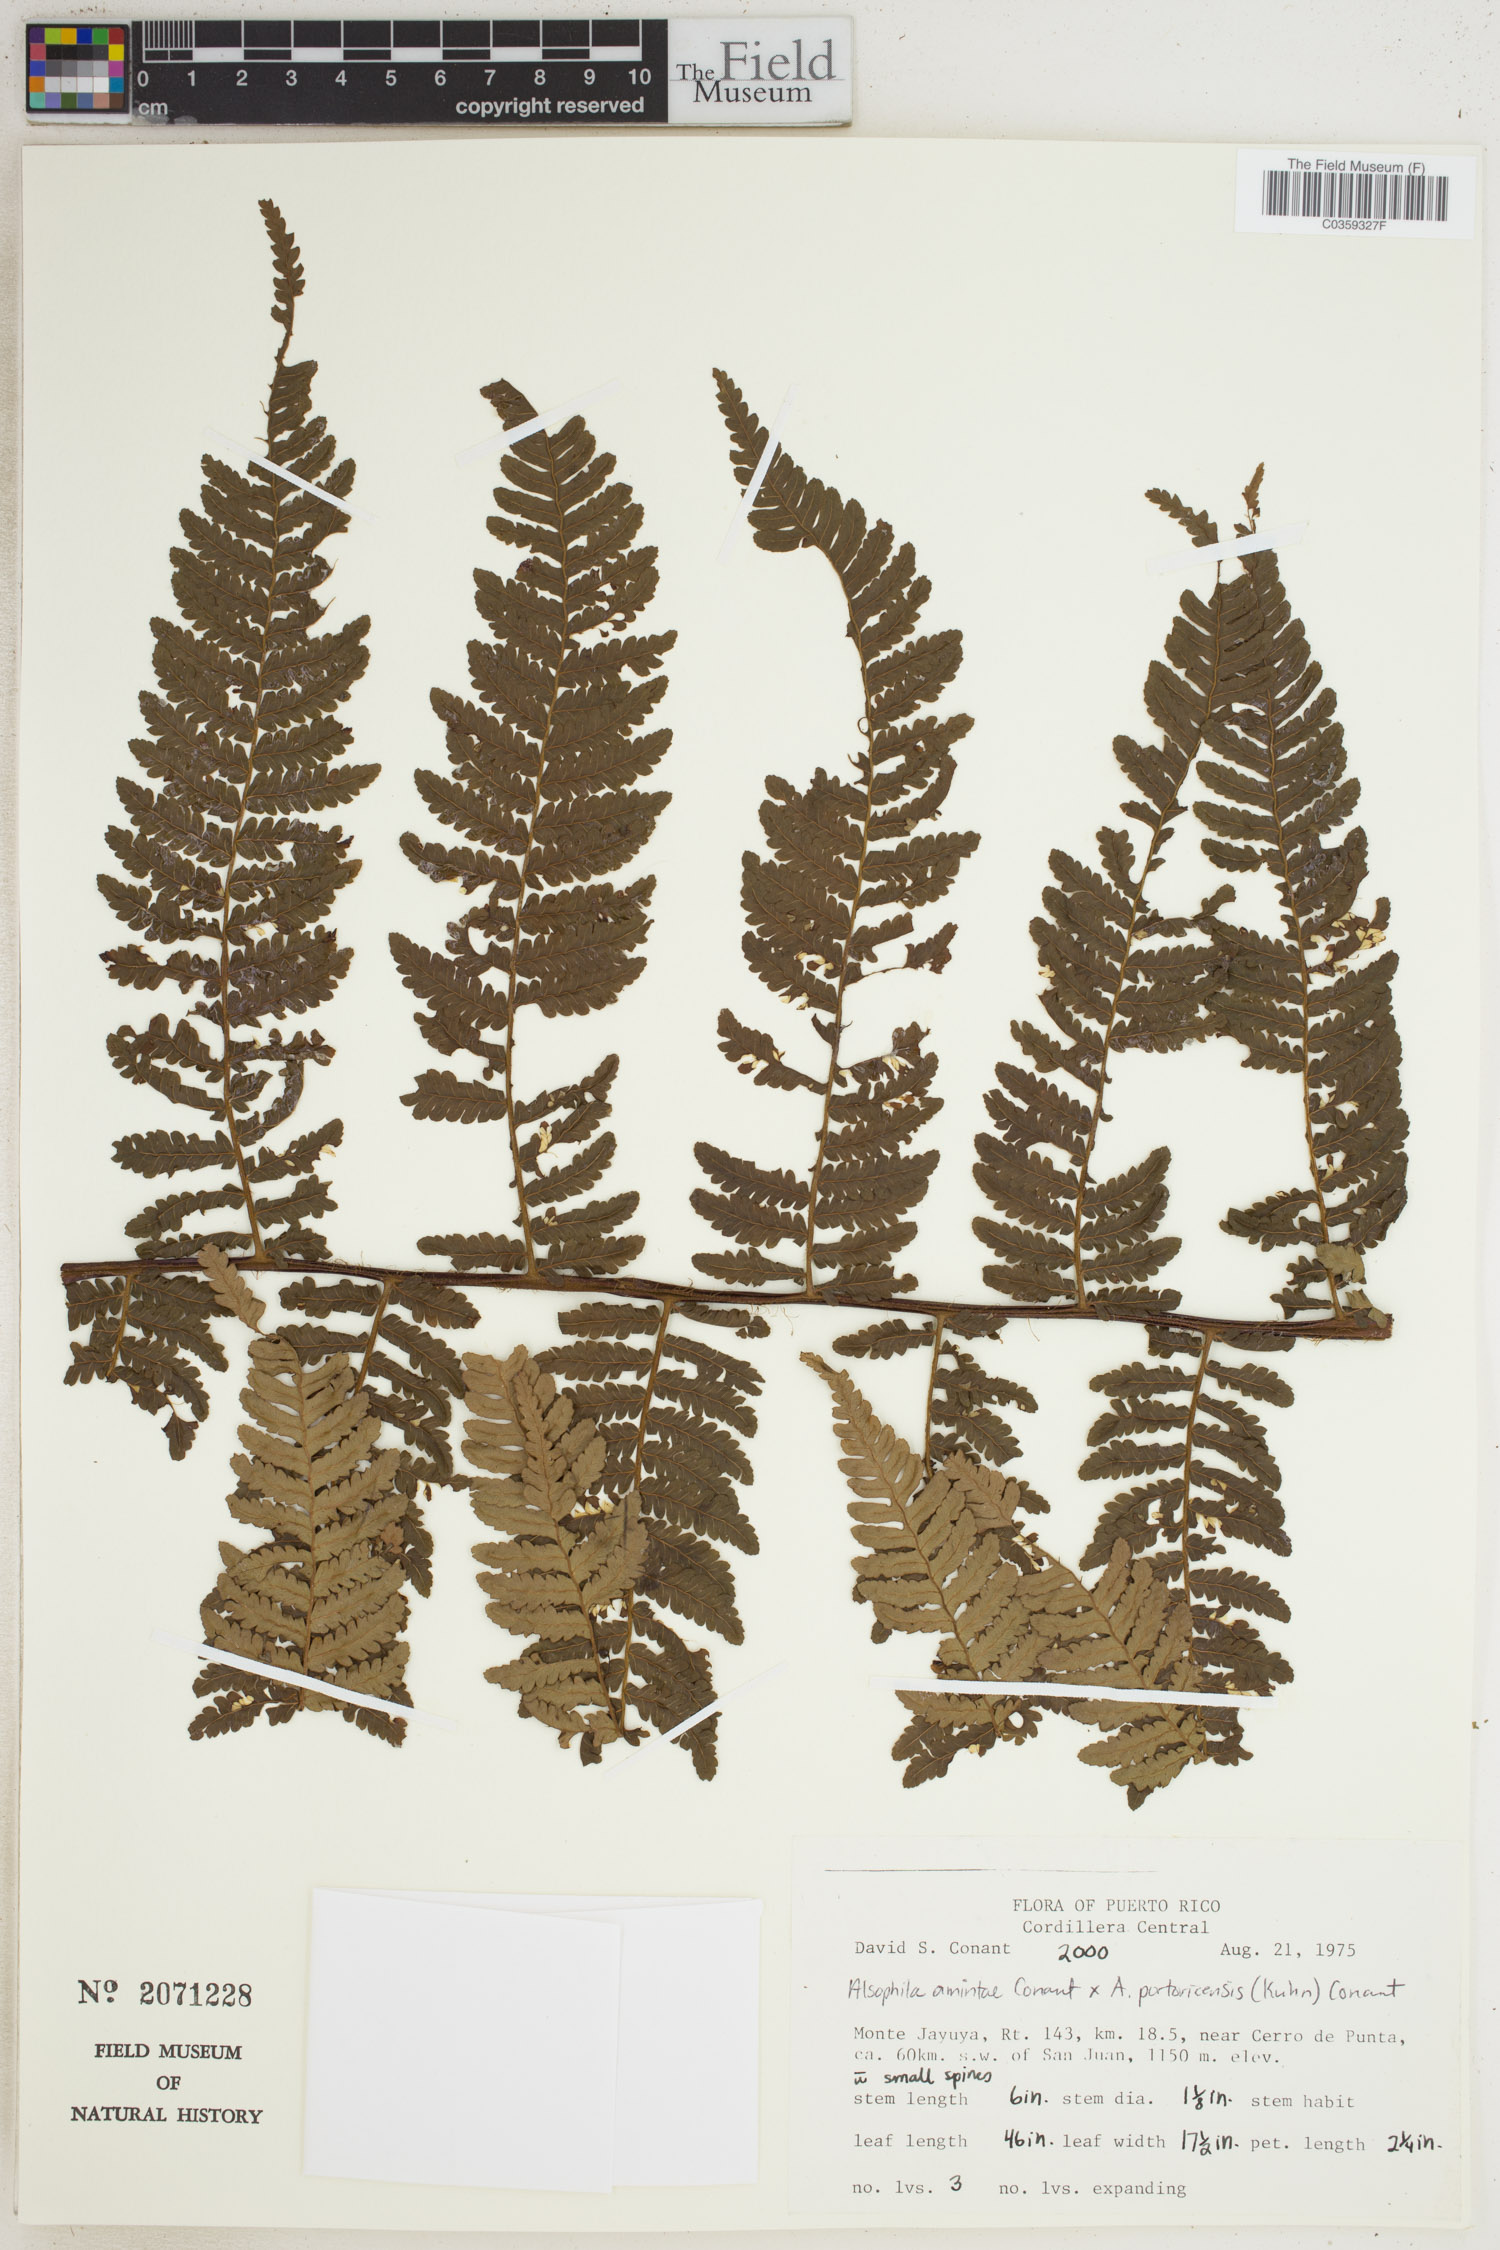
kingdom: Plantae
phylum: Tracheophyta
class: Polypodiopsida
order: Cyatheales
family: Cyatheaceae
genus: Alsophila
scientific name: Alsophila
